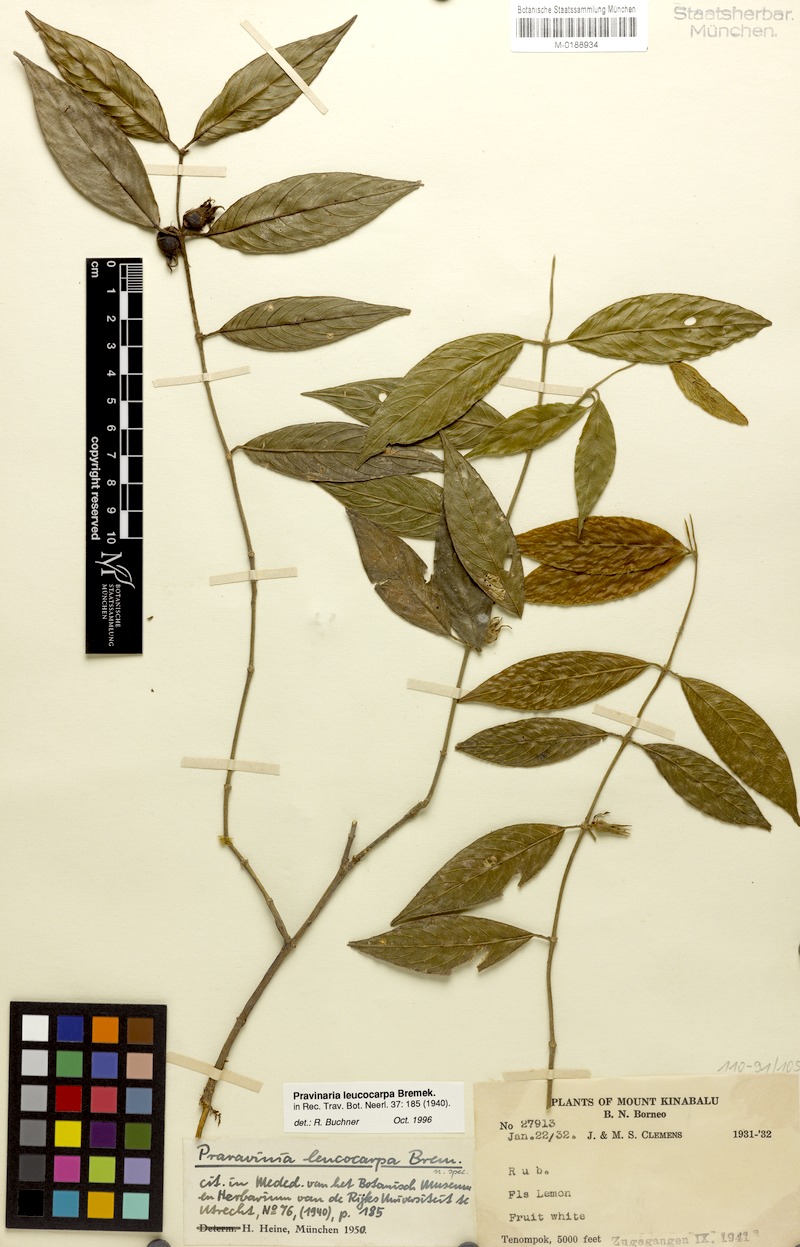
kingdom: Plantae
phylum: Tracheophyta
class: Magnoliopsida
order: Gentianales
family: Rubiaceae
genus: Urophyllum
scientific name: Urophyllum leucocarpum
